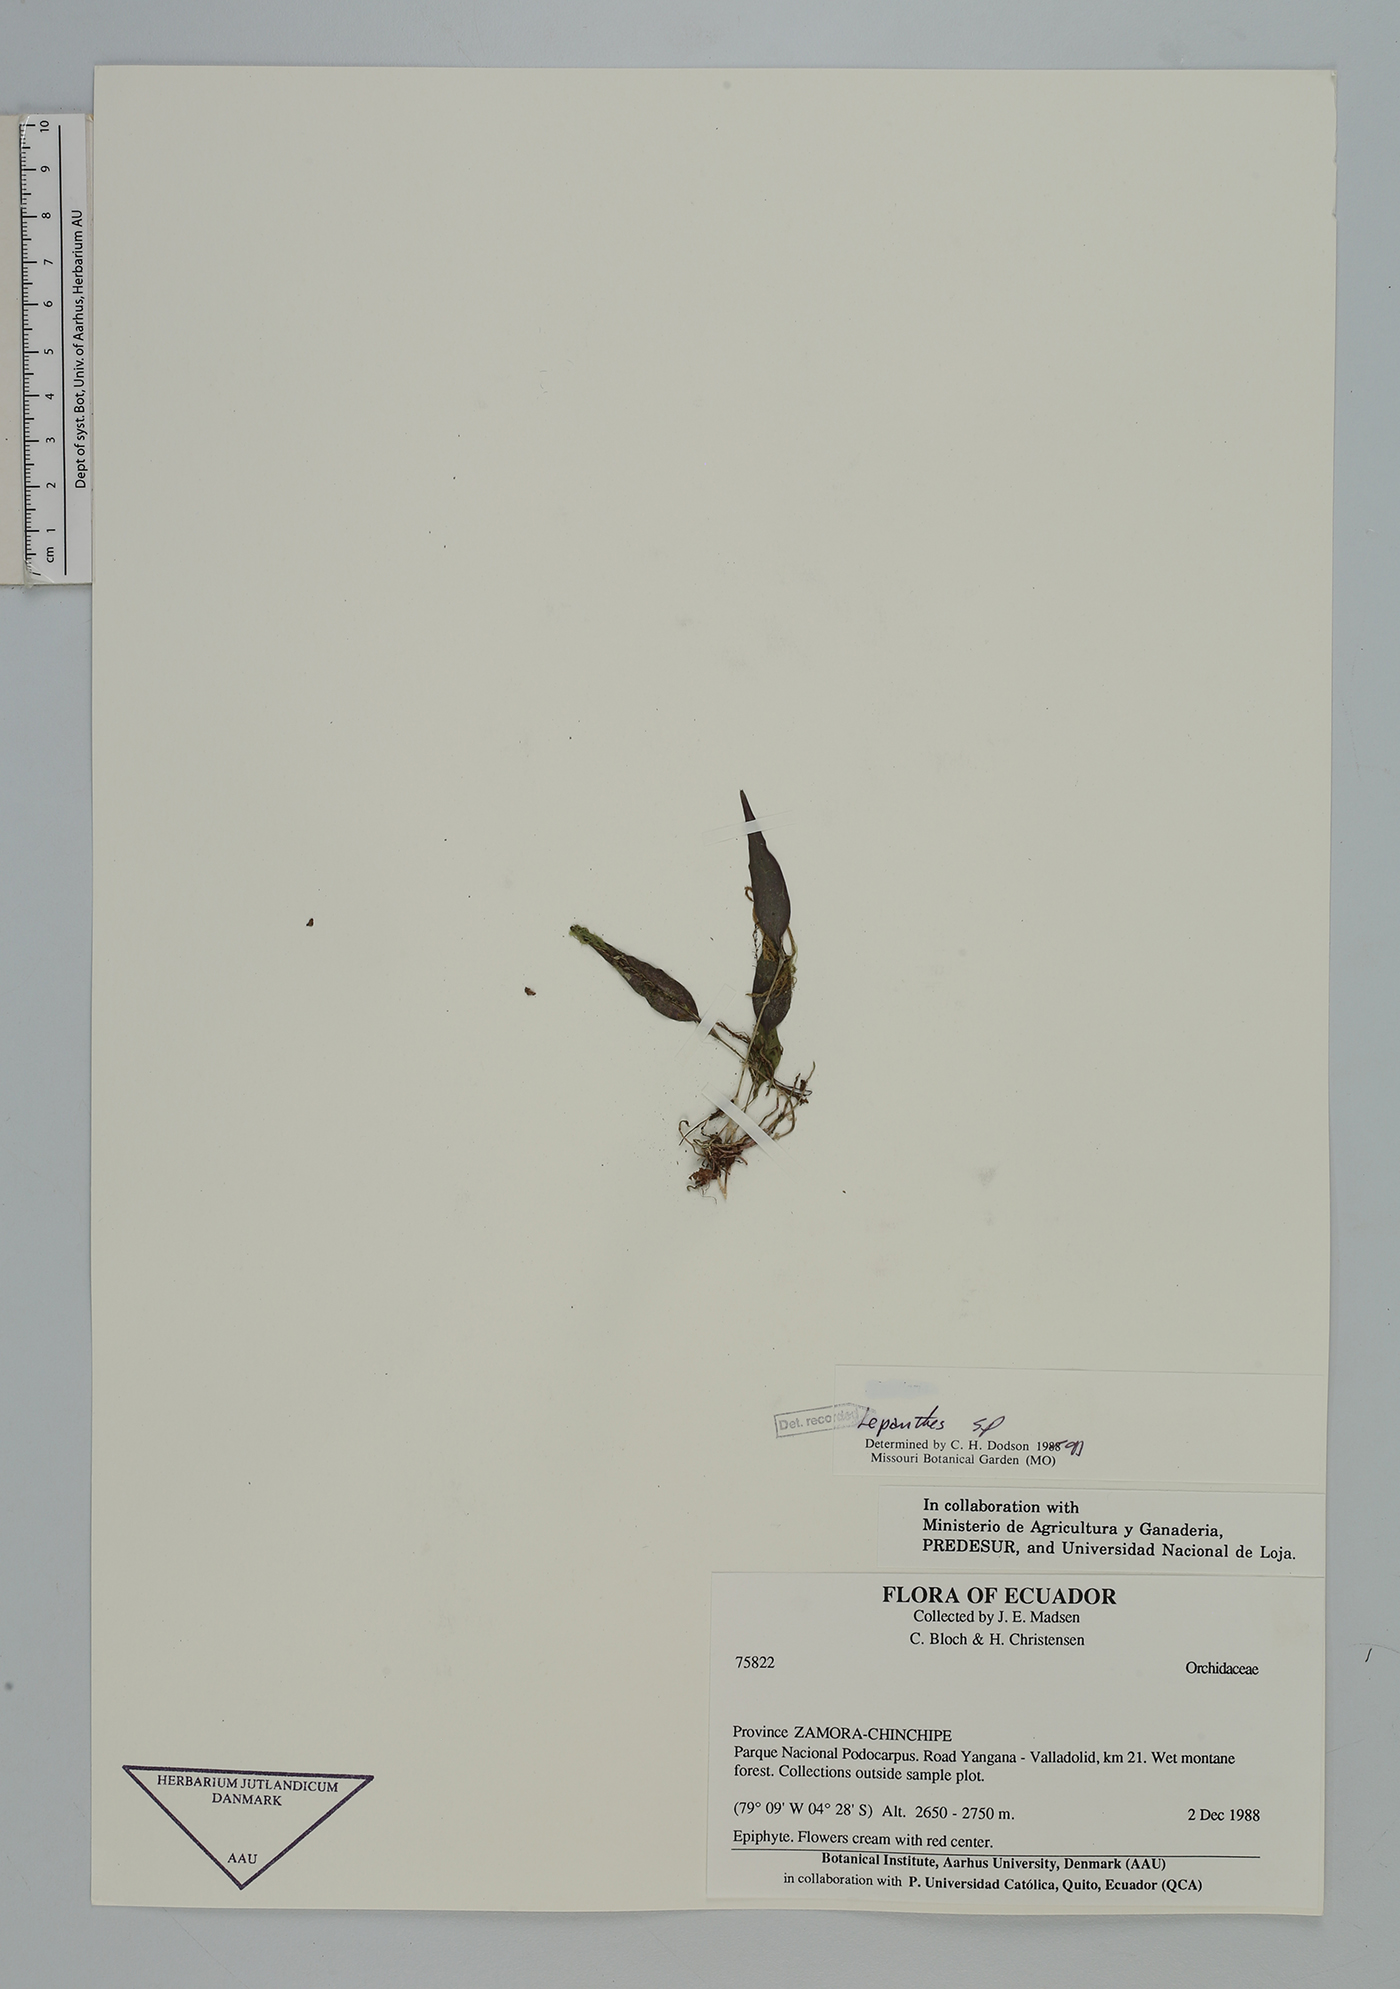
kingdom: Plantae
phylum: Tracheophyta
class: Liliopsida
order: Asparagales
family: Orchidaceae
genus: Lepanthes
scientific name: Lepanthes
